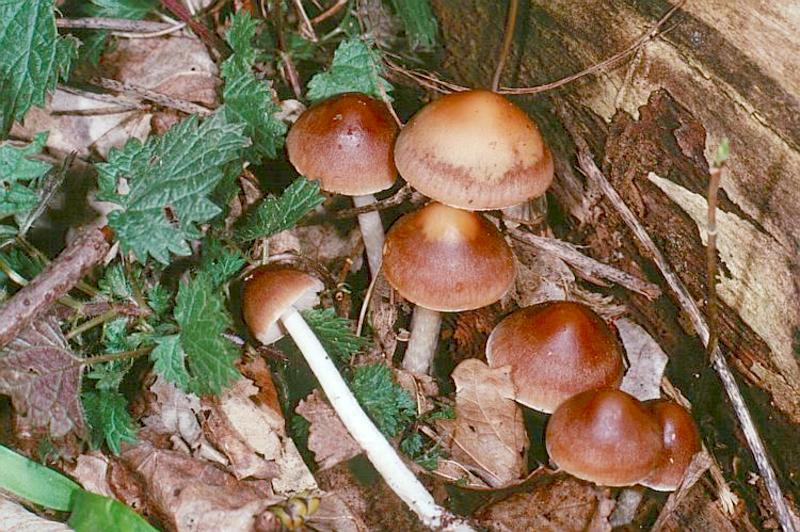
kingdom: Fungi
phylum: Basidiomycota
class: Agaricomycetes
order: Agaricales
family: Psathyrellaceae
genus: Psathyrella
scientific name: Psathyrella piluliformis
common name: Common stump brittlestem
